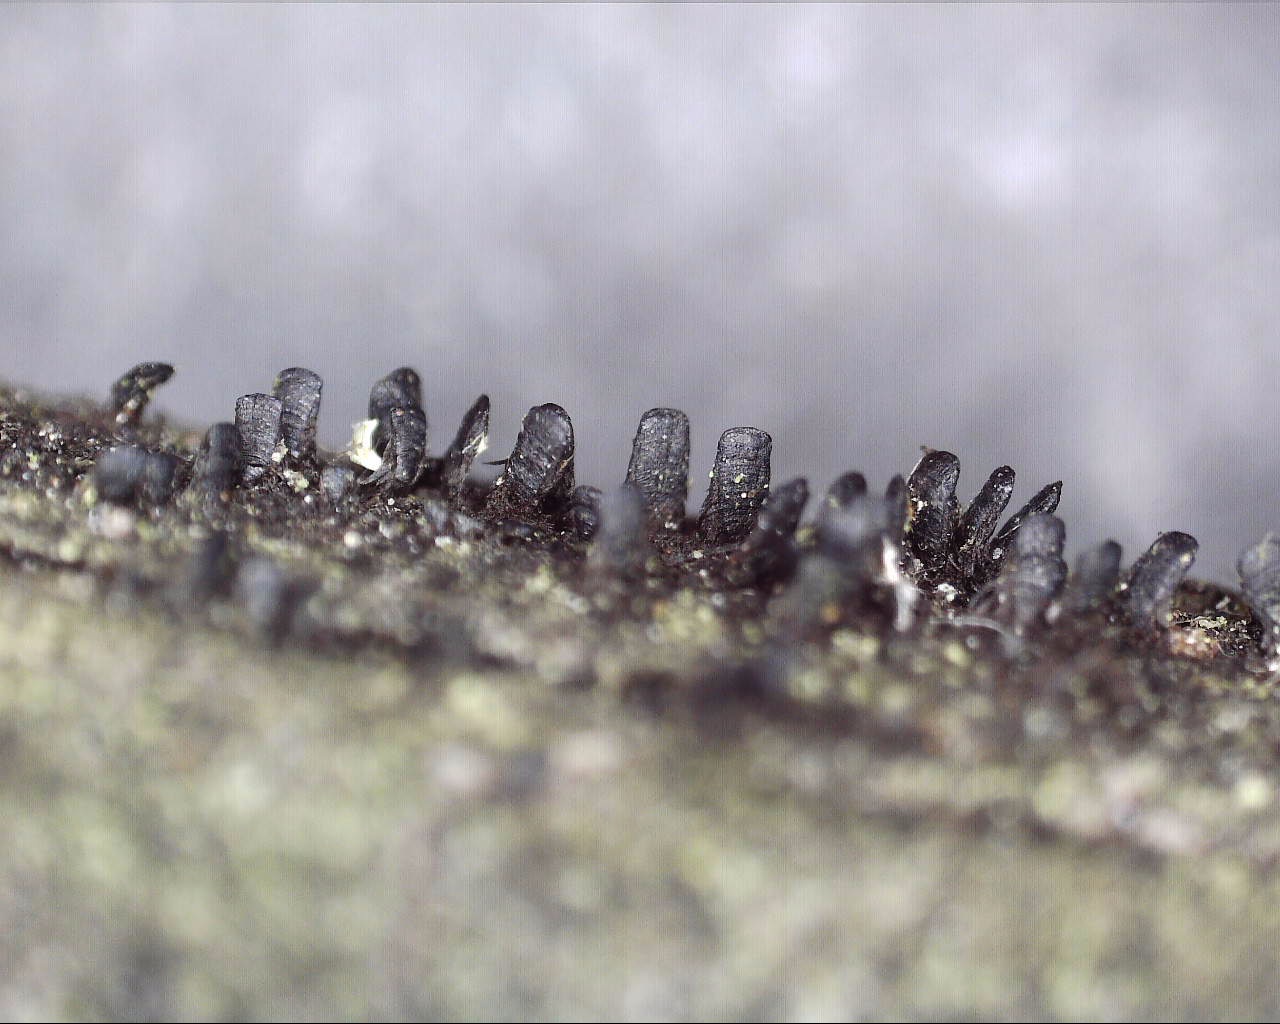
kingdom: Fungi
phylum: Ascomycota
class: Eurotiomycetes
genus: Glyphium
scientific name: Glyphium elatum
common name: kuløkse
